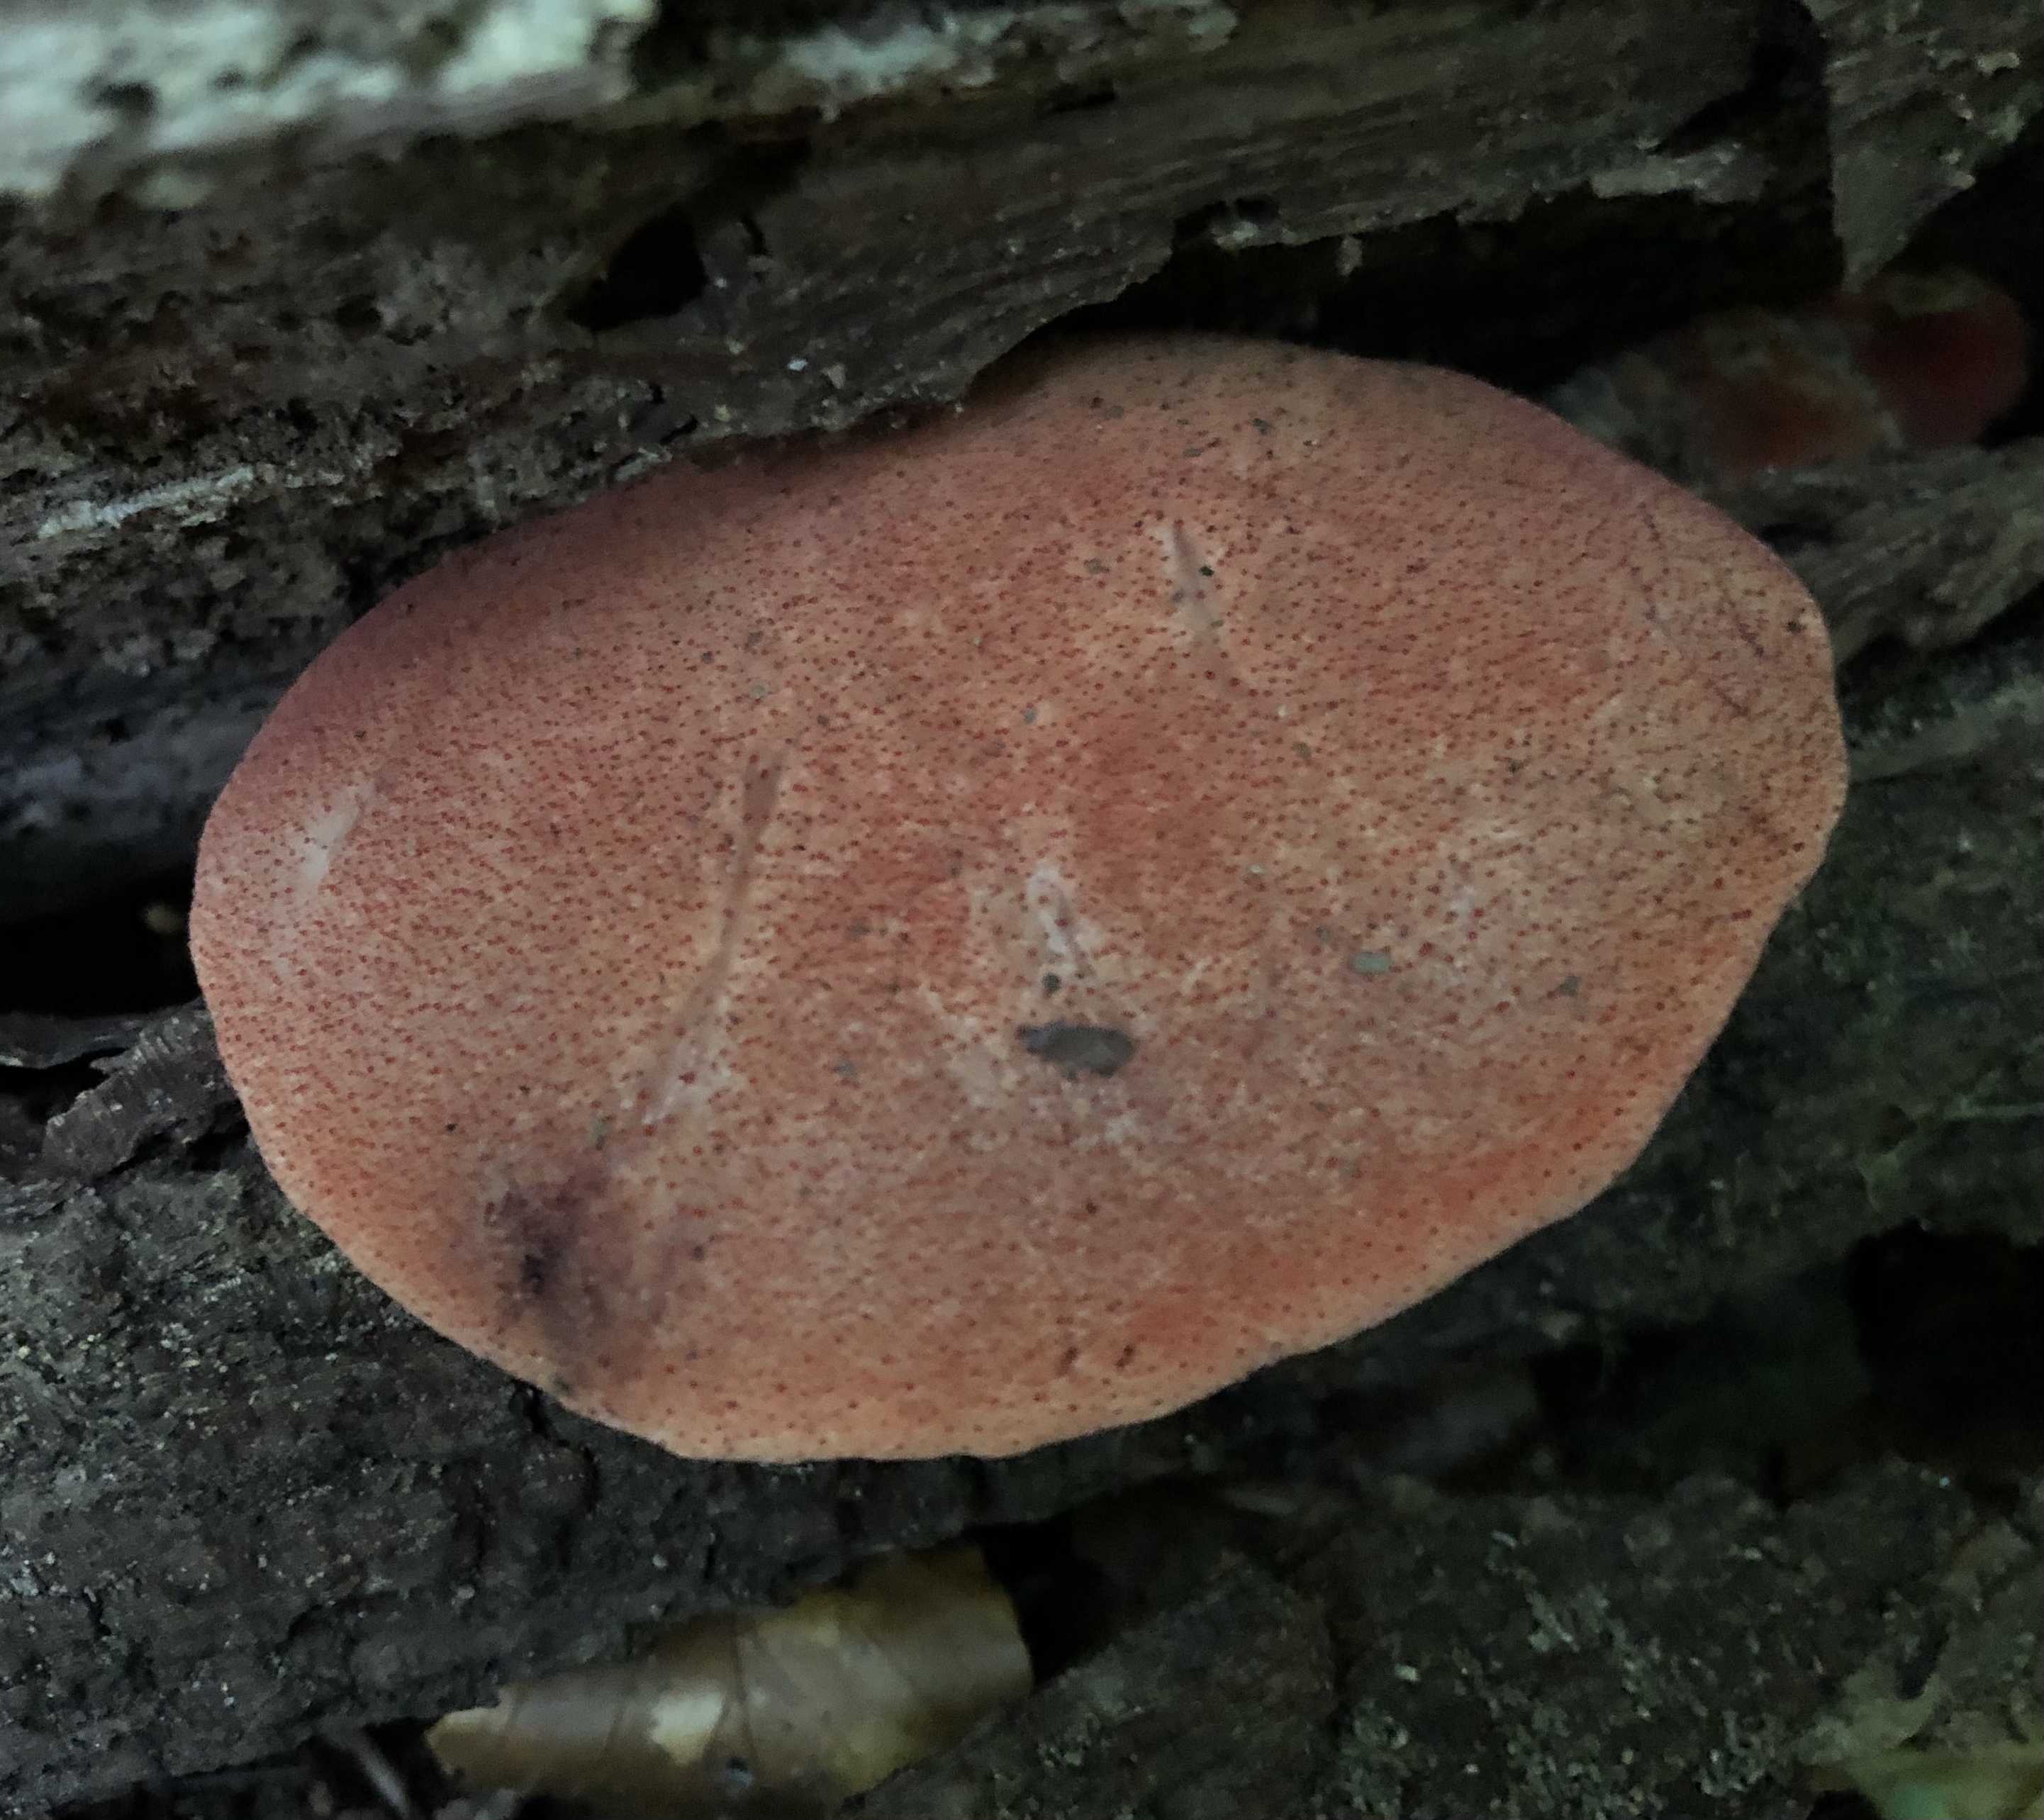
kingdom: Fungi
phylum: Basidiomycota
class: Agaricomycetes
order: Agaricales
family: Fistulinaceae
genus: Fistulina
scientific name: Fistulina hepatica
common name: oksetunge
